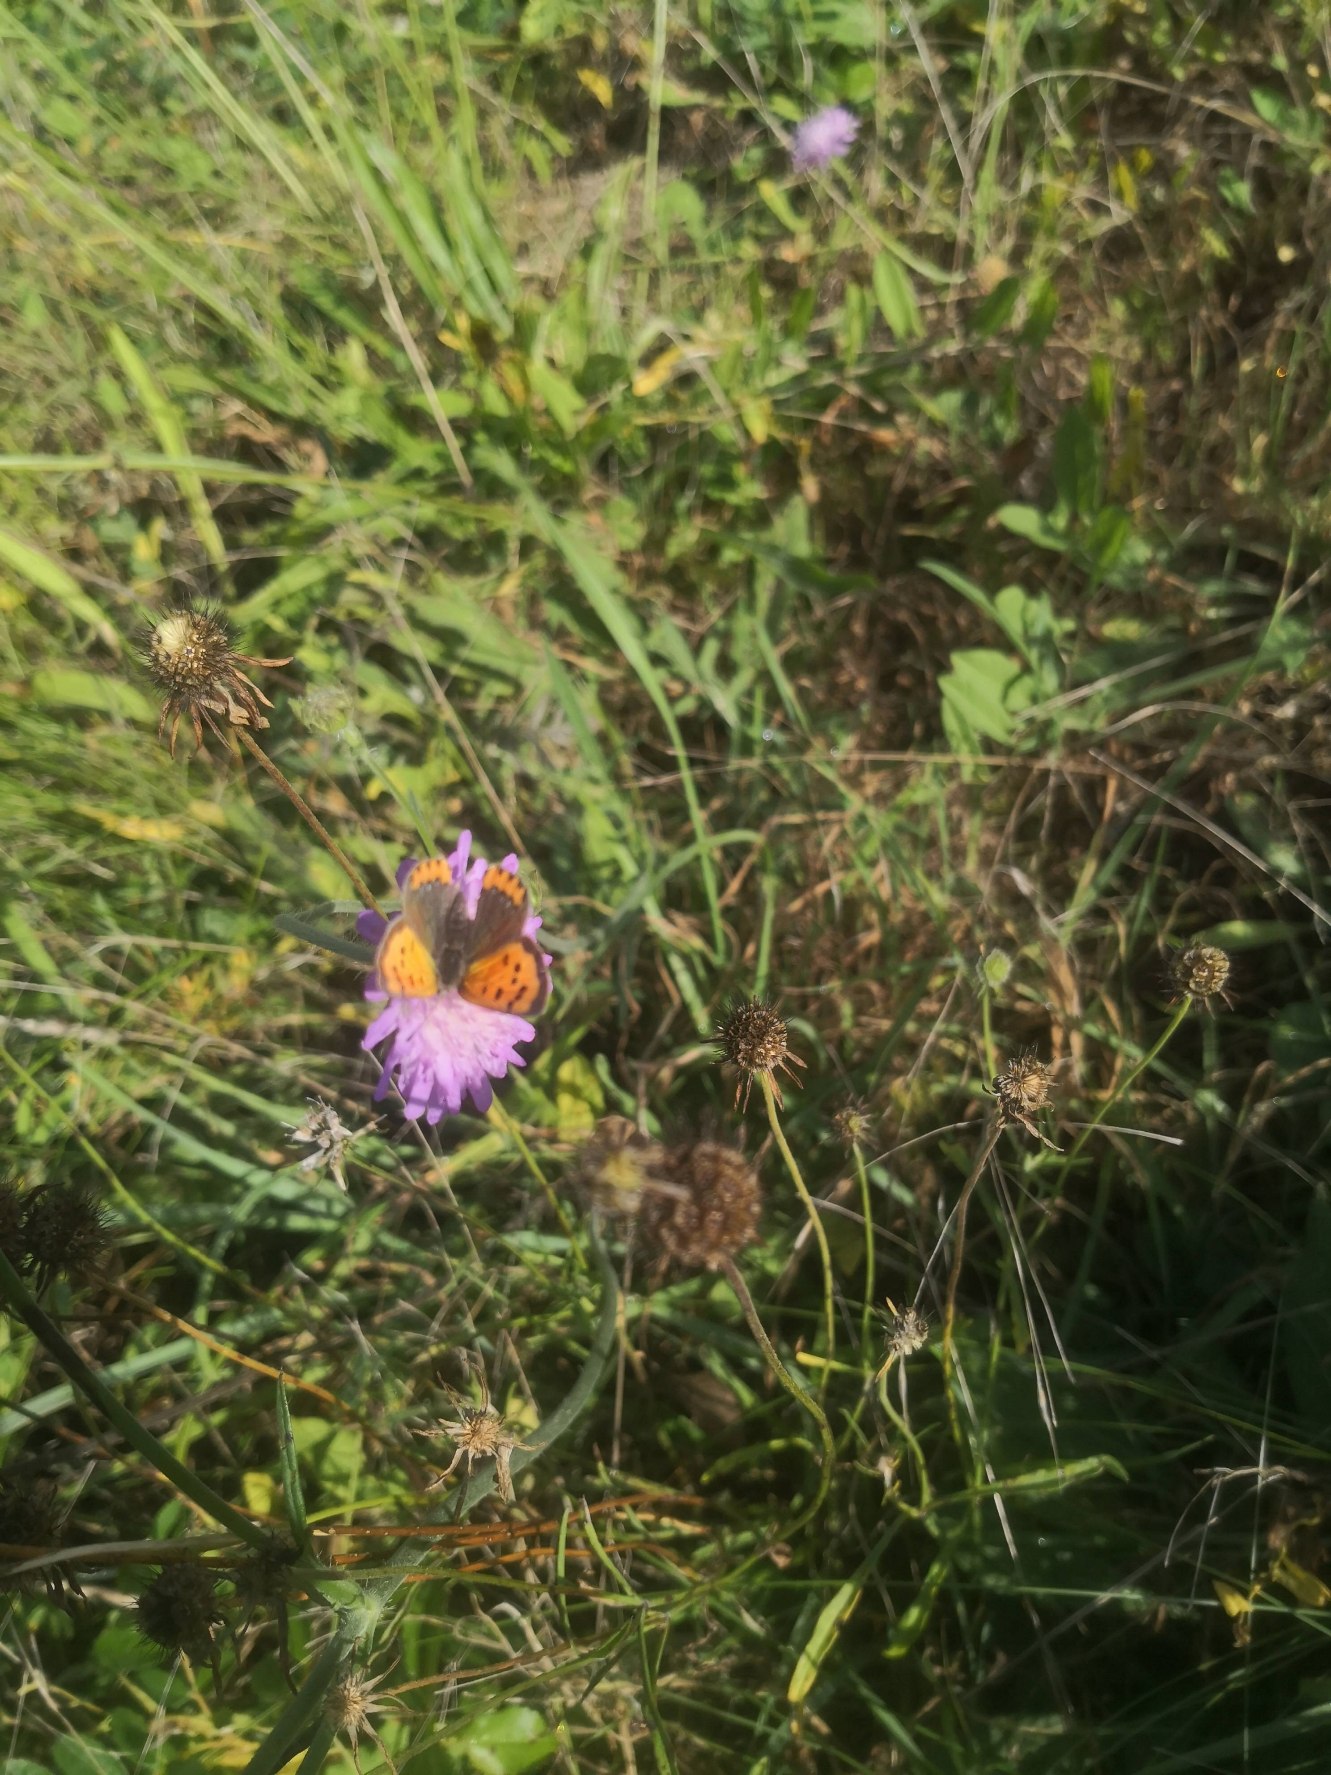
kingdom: Animalia
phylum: Arthropoda
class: Insecta
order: Lepidoptera
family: Lycaenidae
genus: Lycaena
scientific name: Lycaena phlaeas
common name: Lille ildfugl
